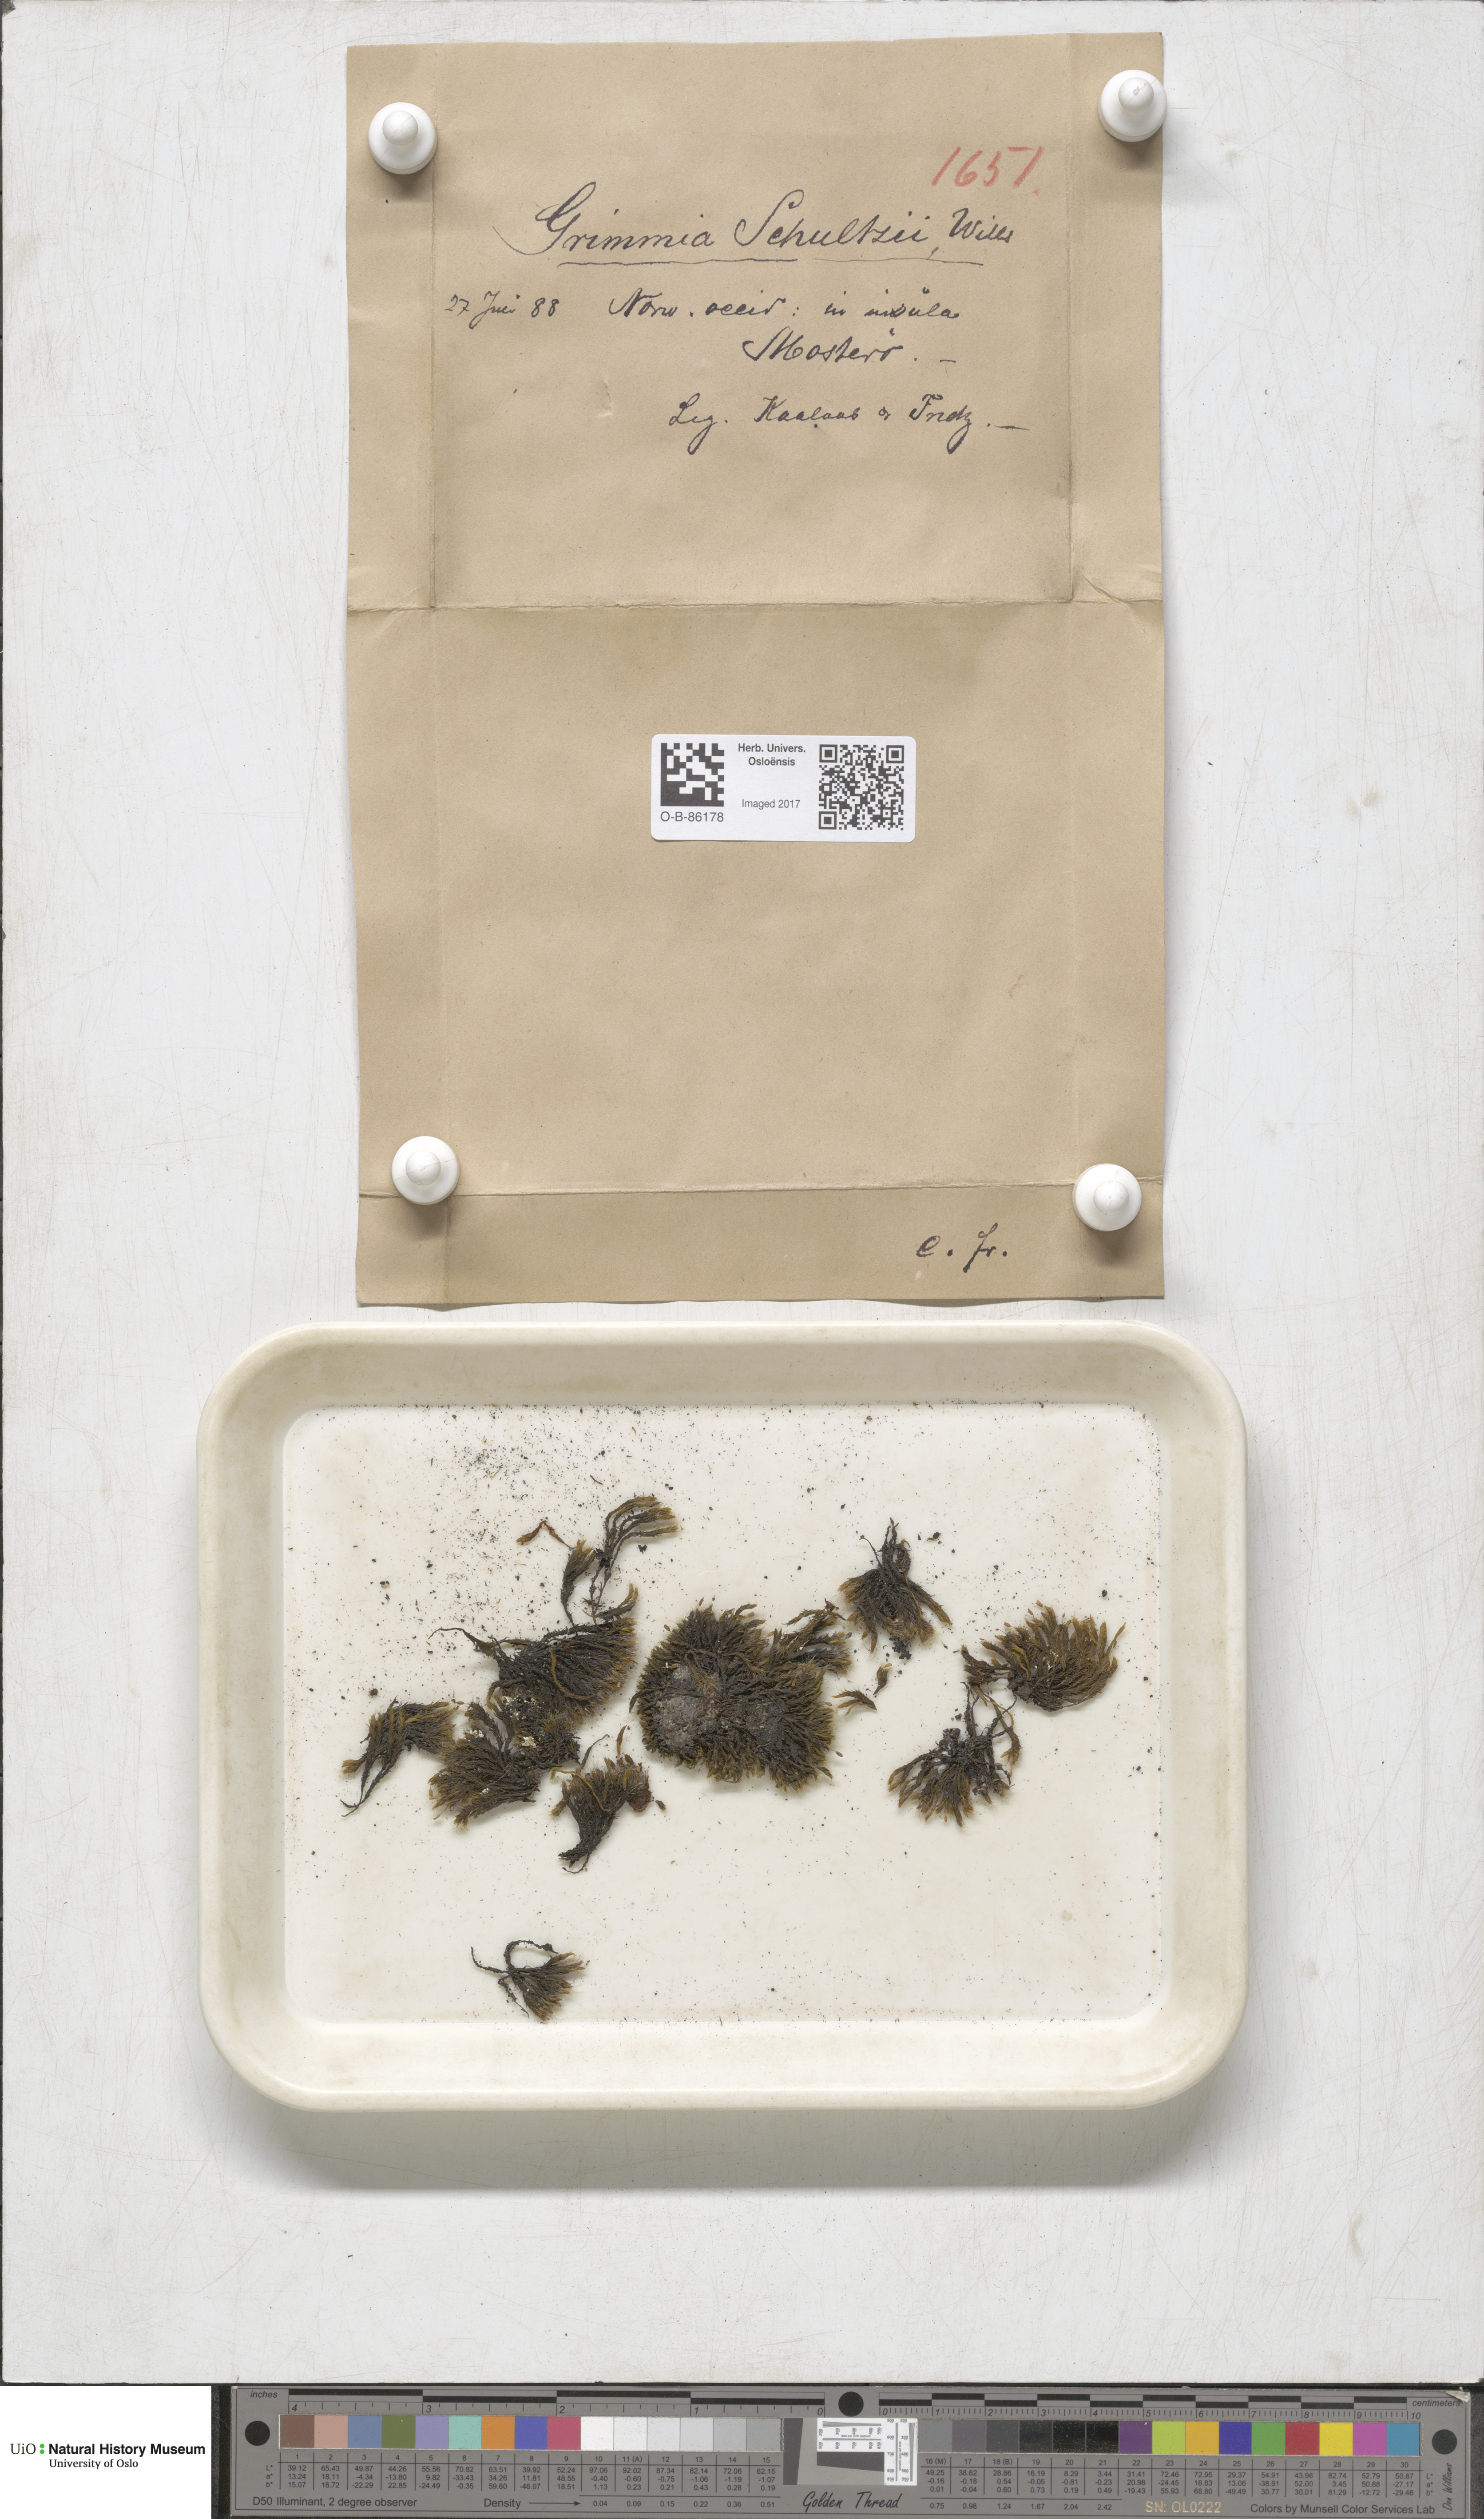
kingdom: Plantae
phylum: Bryophyta
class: Bryopsida
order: Grimmiales
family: Grimmiaceae
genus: Grimmia
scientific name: Grimmia decipiens
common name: Great grimmia
